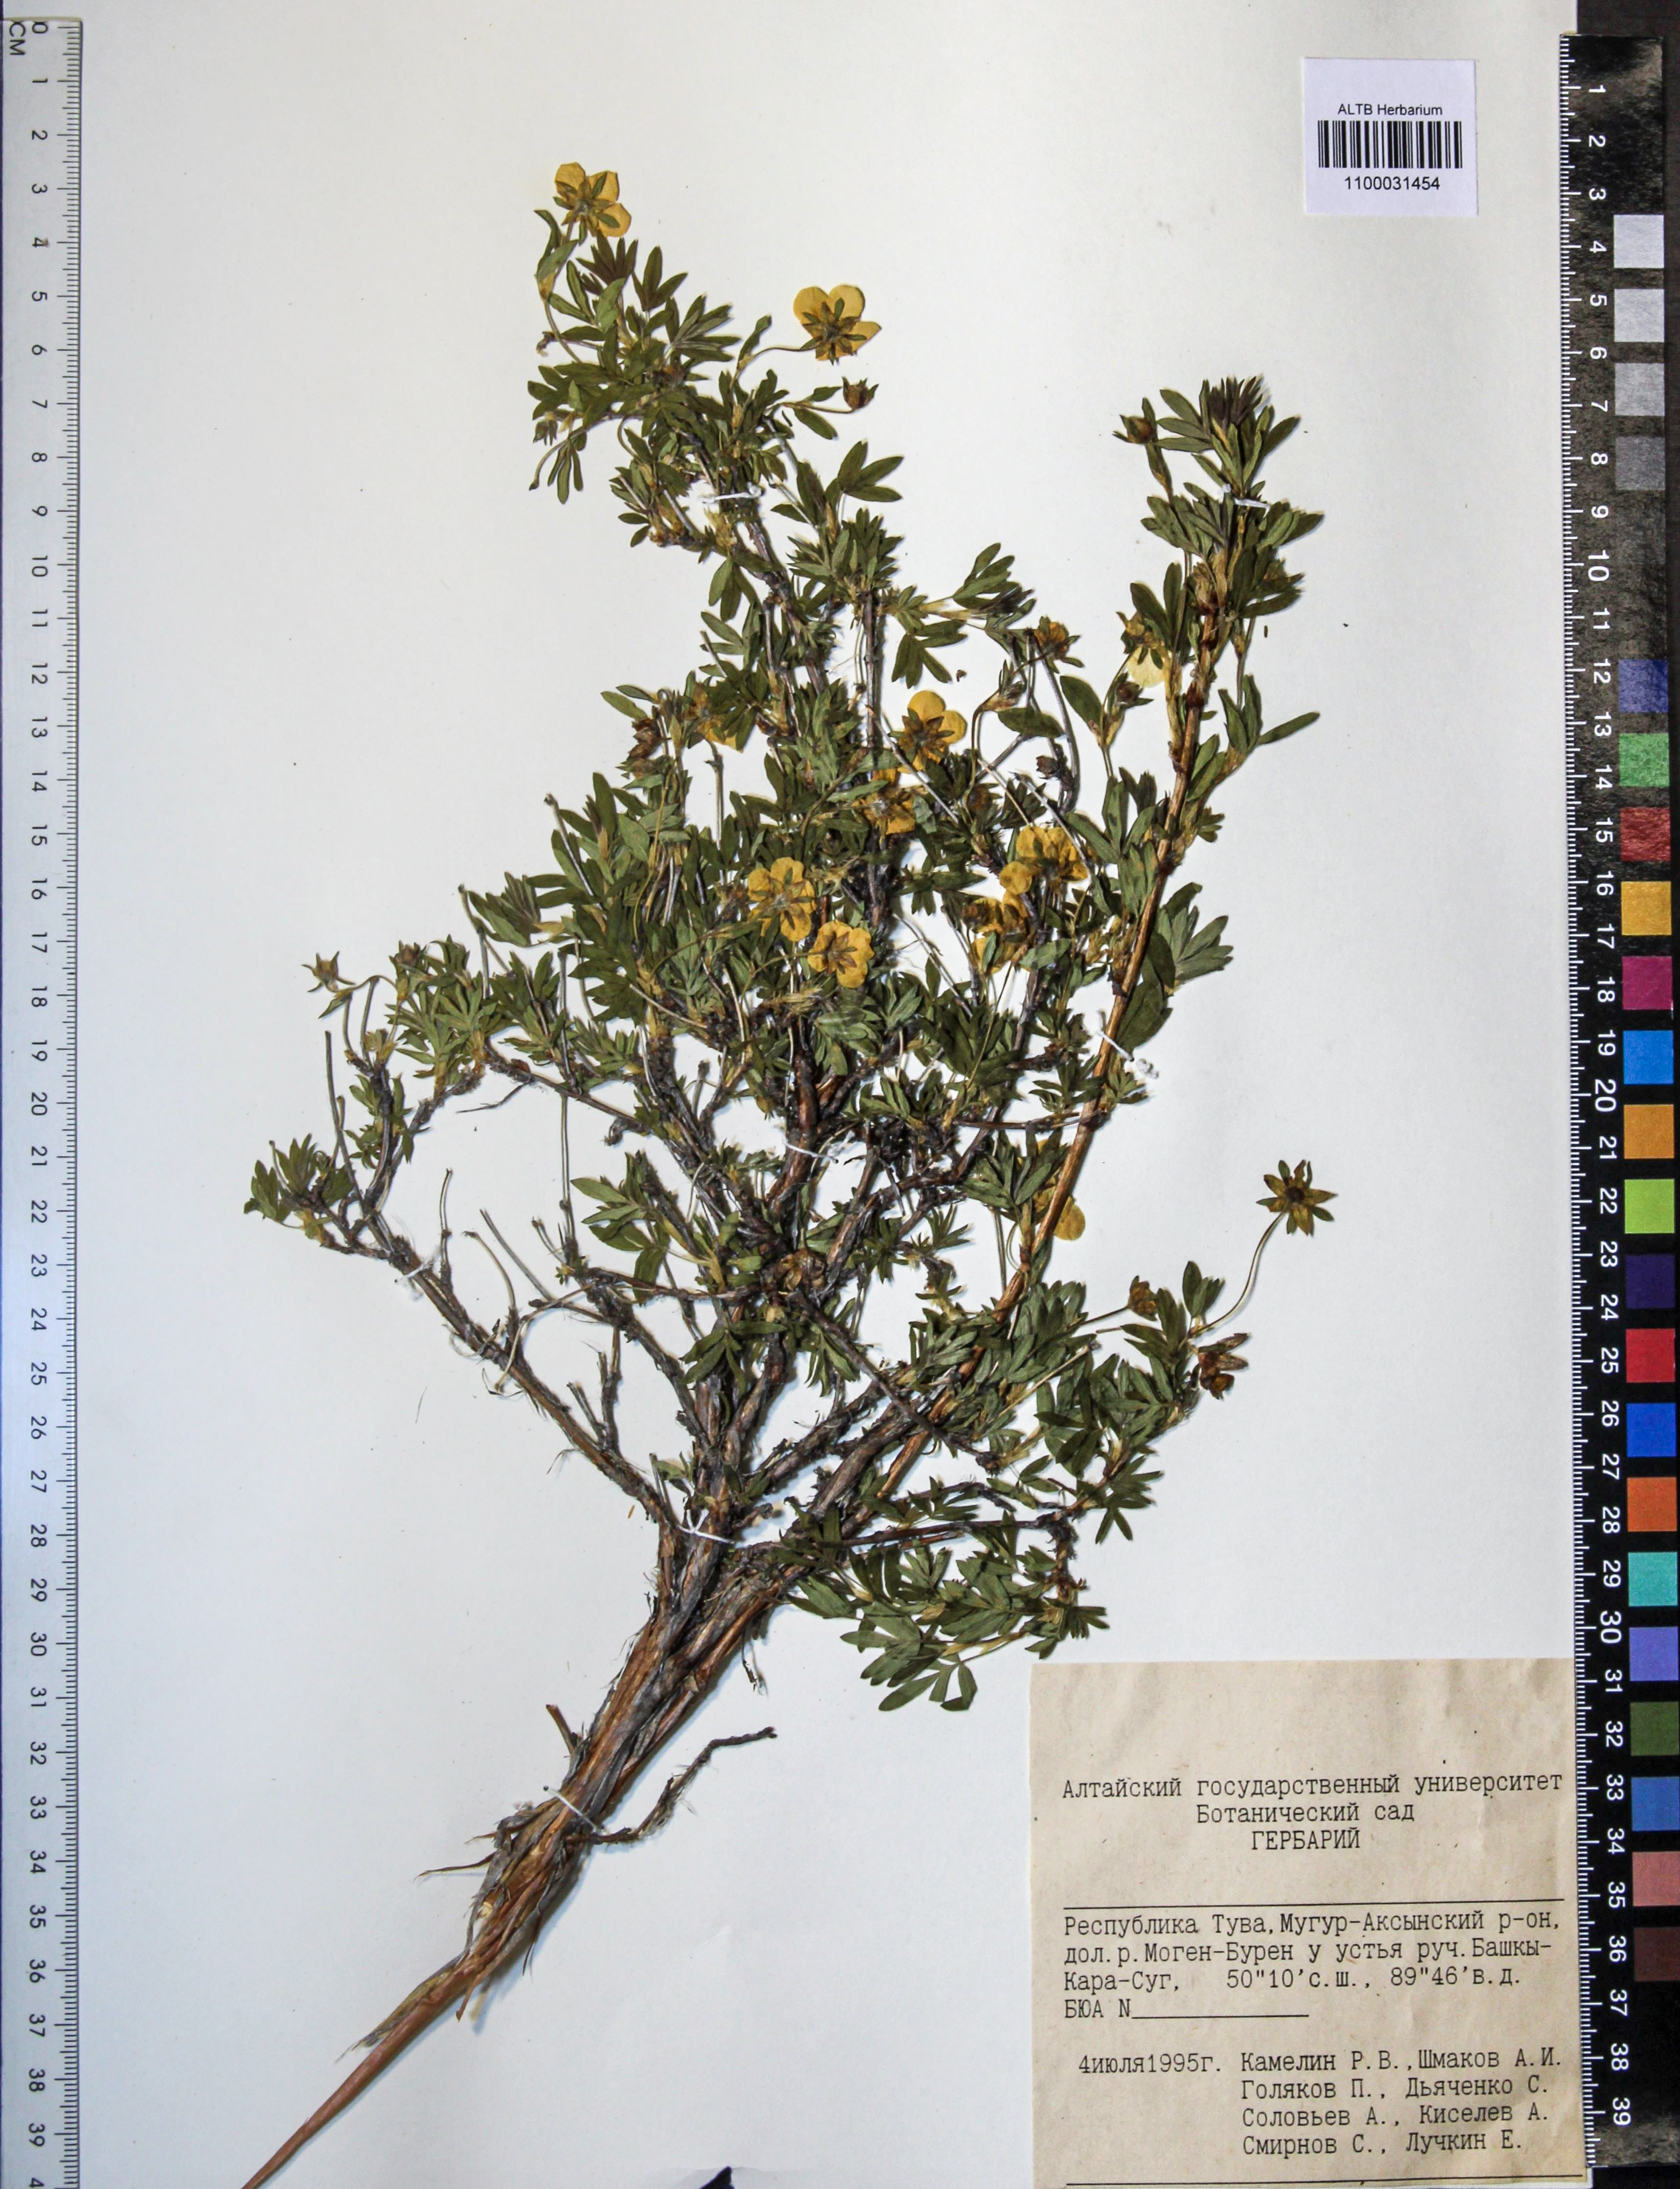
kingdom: Plantae
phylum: Tracheophyta
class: Magnoliopsida
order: Rosales
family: Rosaceae
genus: Dasiphora
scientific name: Dasiphora fruticosa
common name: Shrubby cinquefoil
